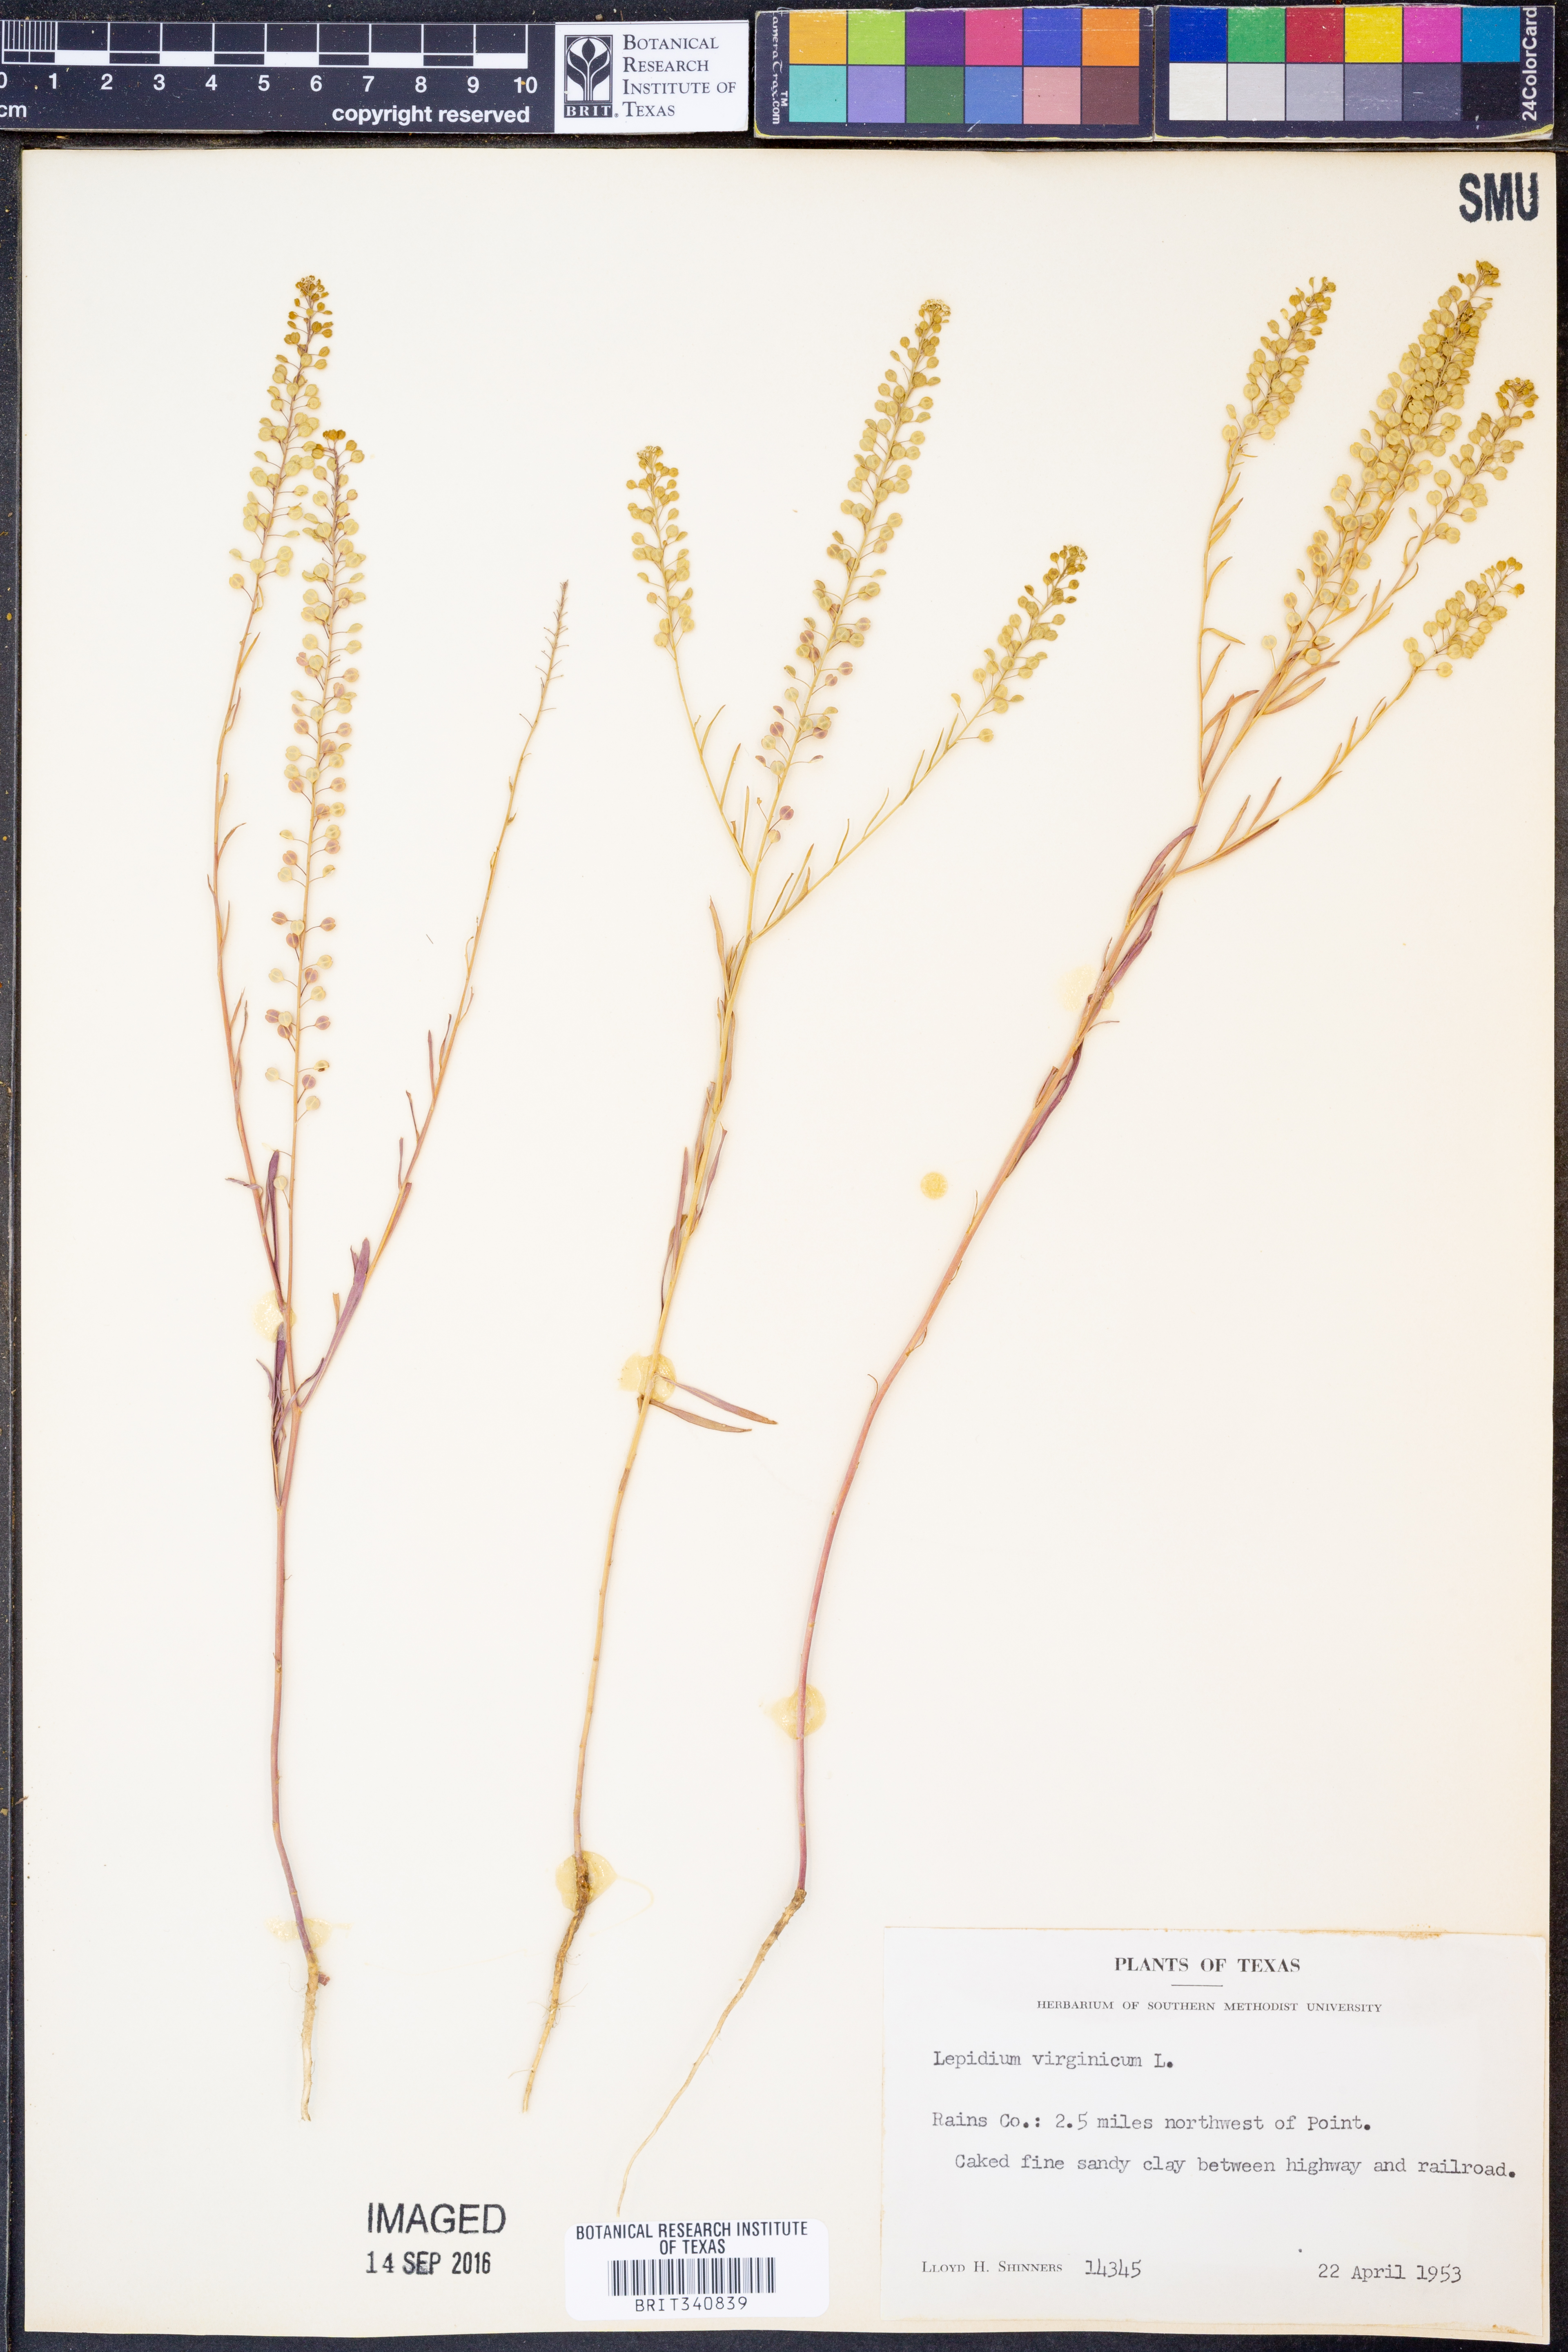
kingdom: Plantae
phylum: Tracheophyta
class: Magnoliopsida
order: Brassicales
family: Brassicaceae
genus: Lepidium
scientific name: Lepidium virginicum
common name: Least pepperwort
